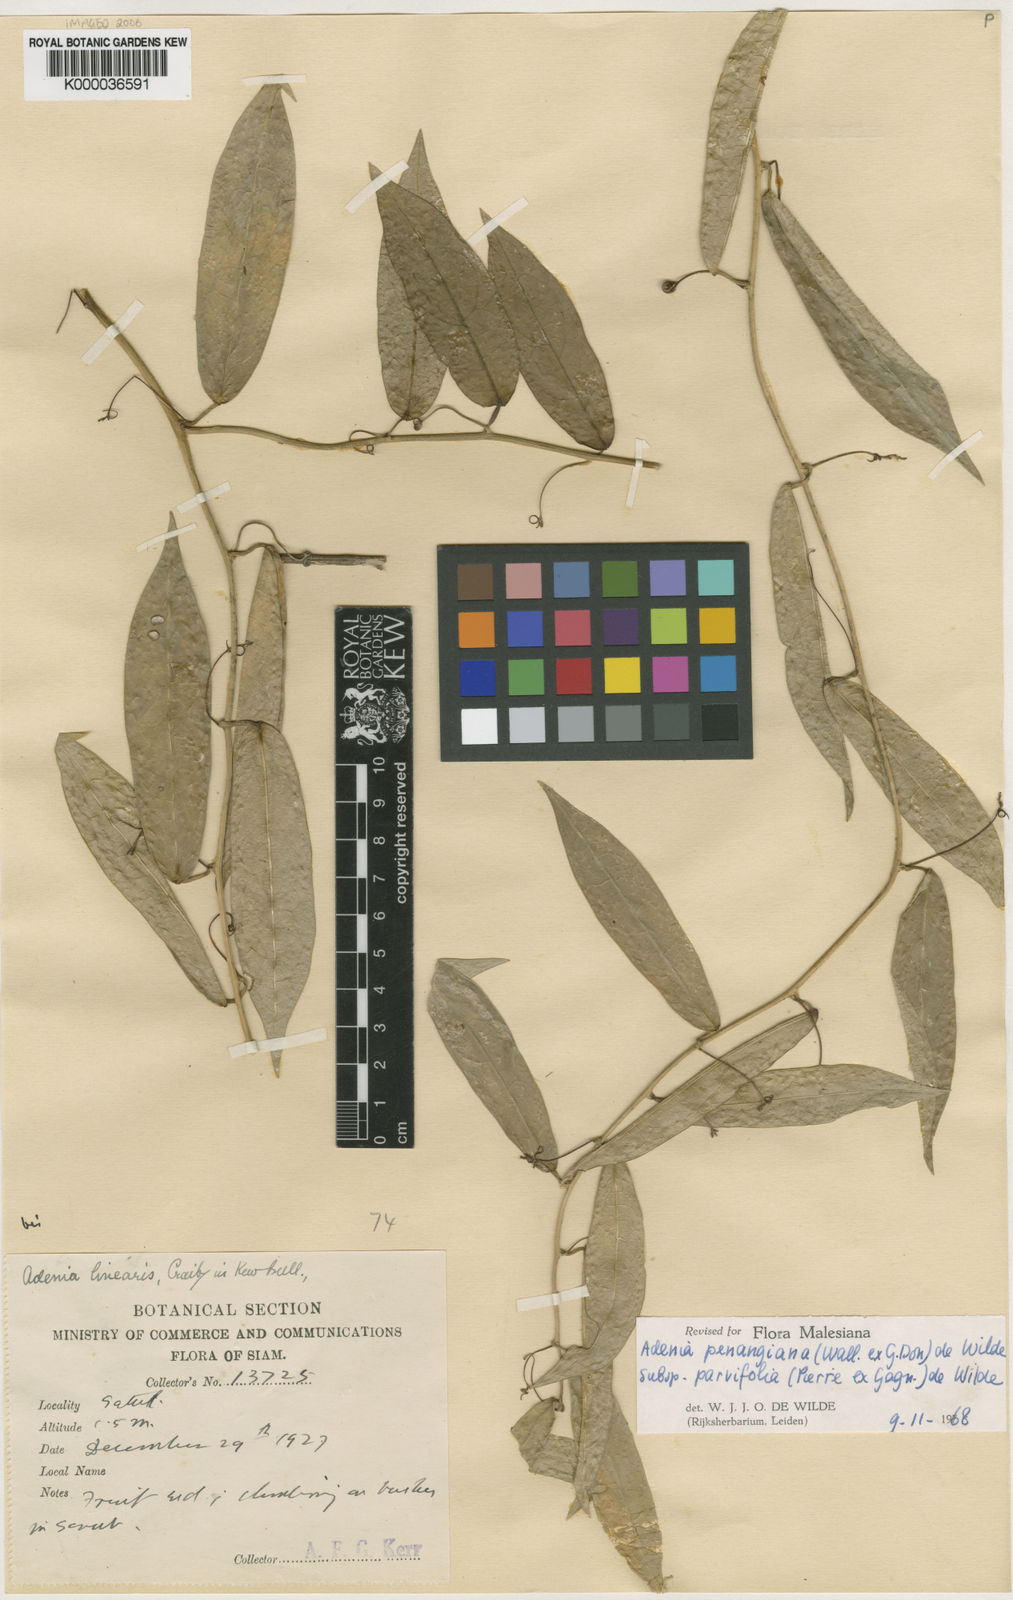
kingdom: Plantae
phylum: Tracheophyta
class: Magnoliopsida
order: Malpighiales
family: Passifloraceae
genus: Adenia
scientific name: Adenia penangiana
